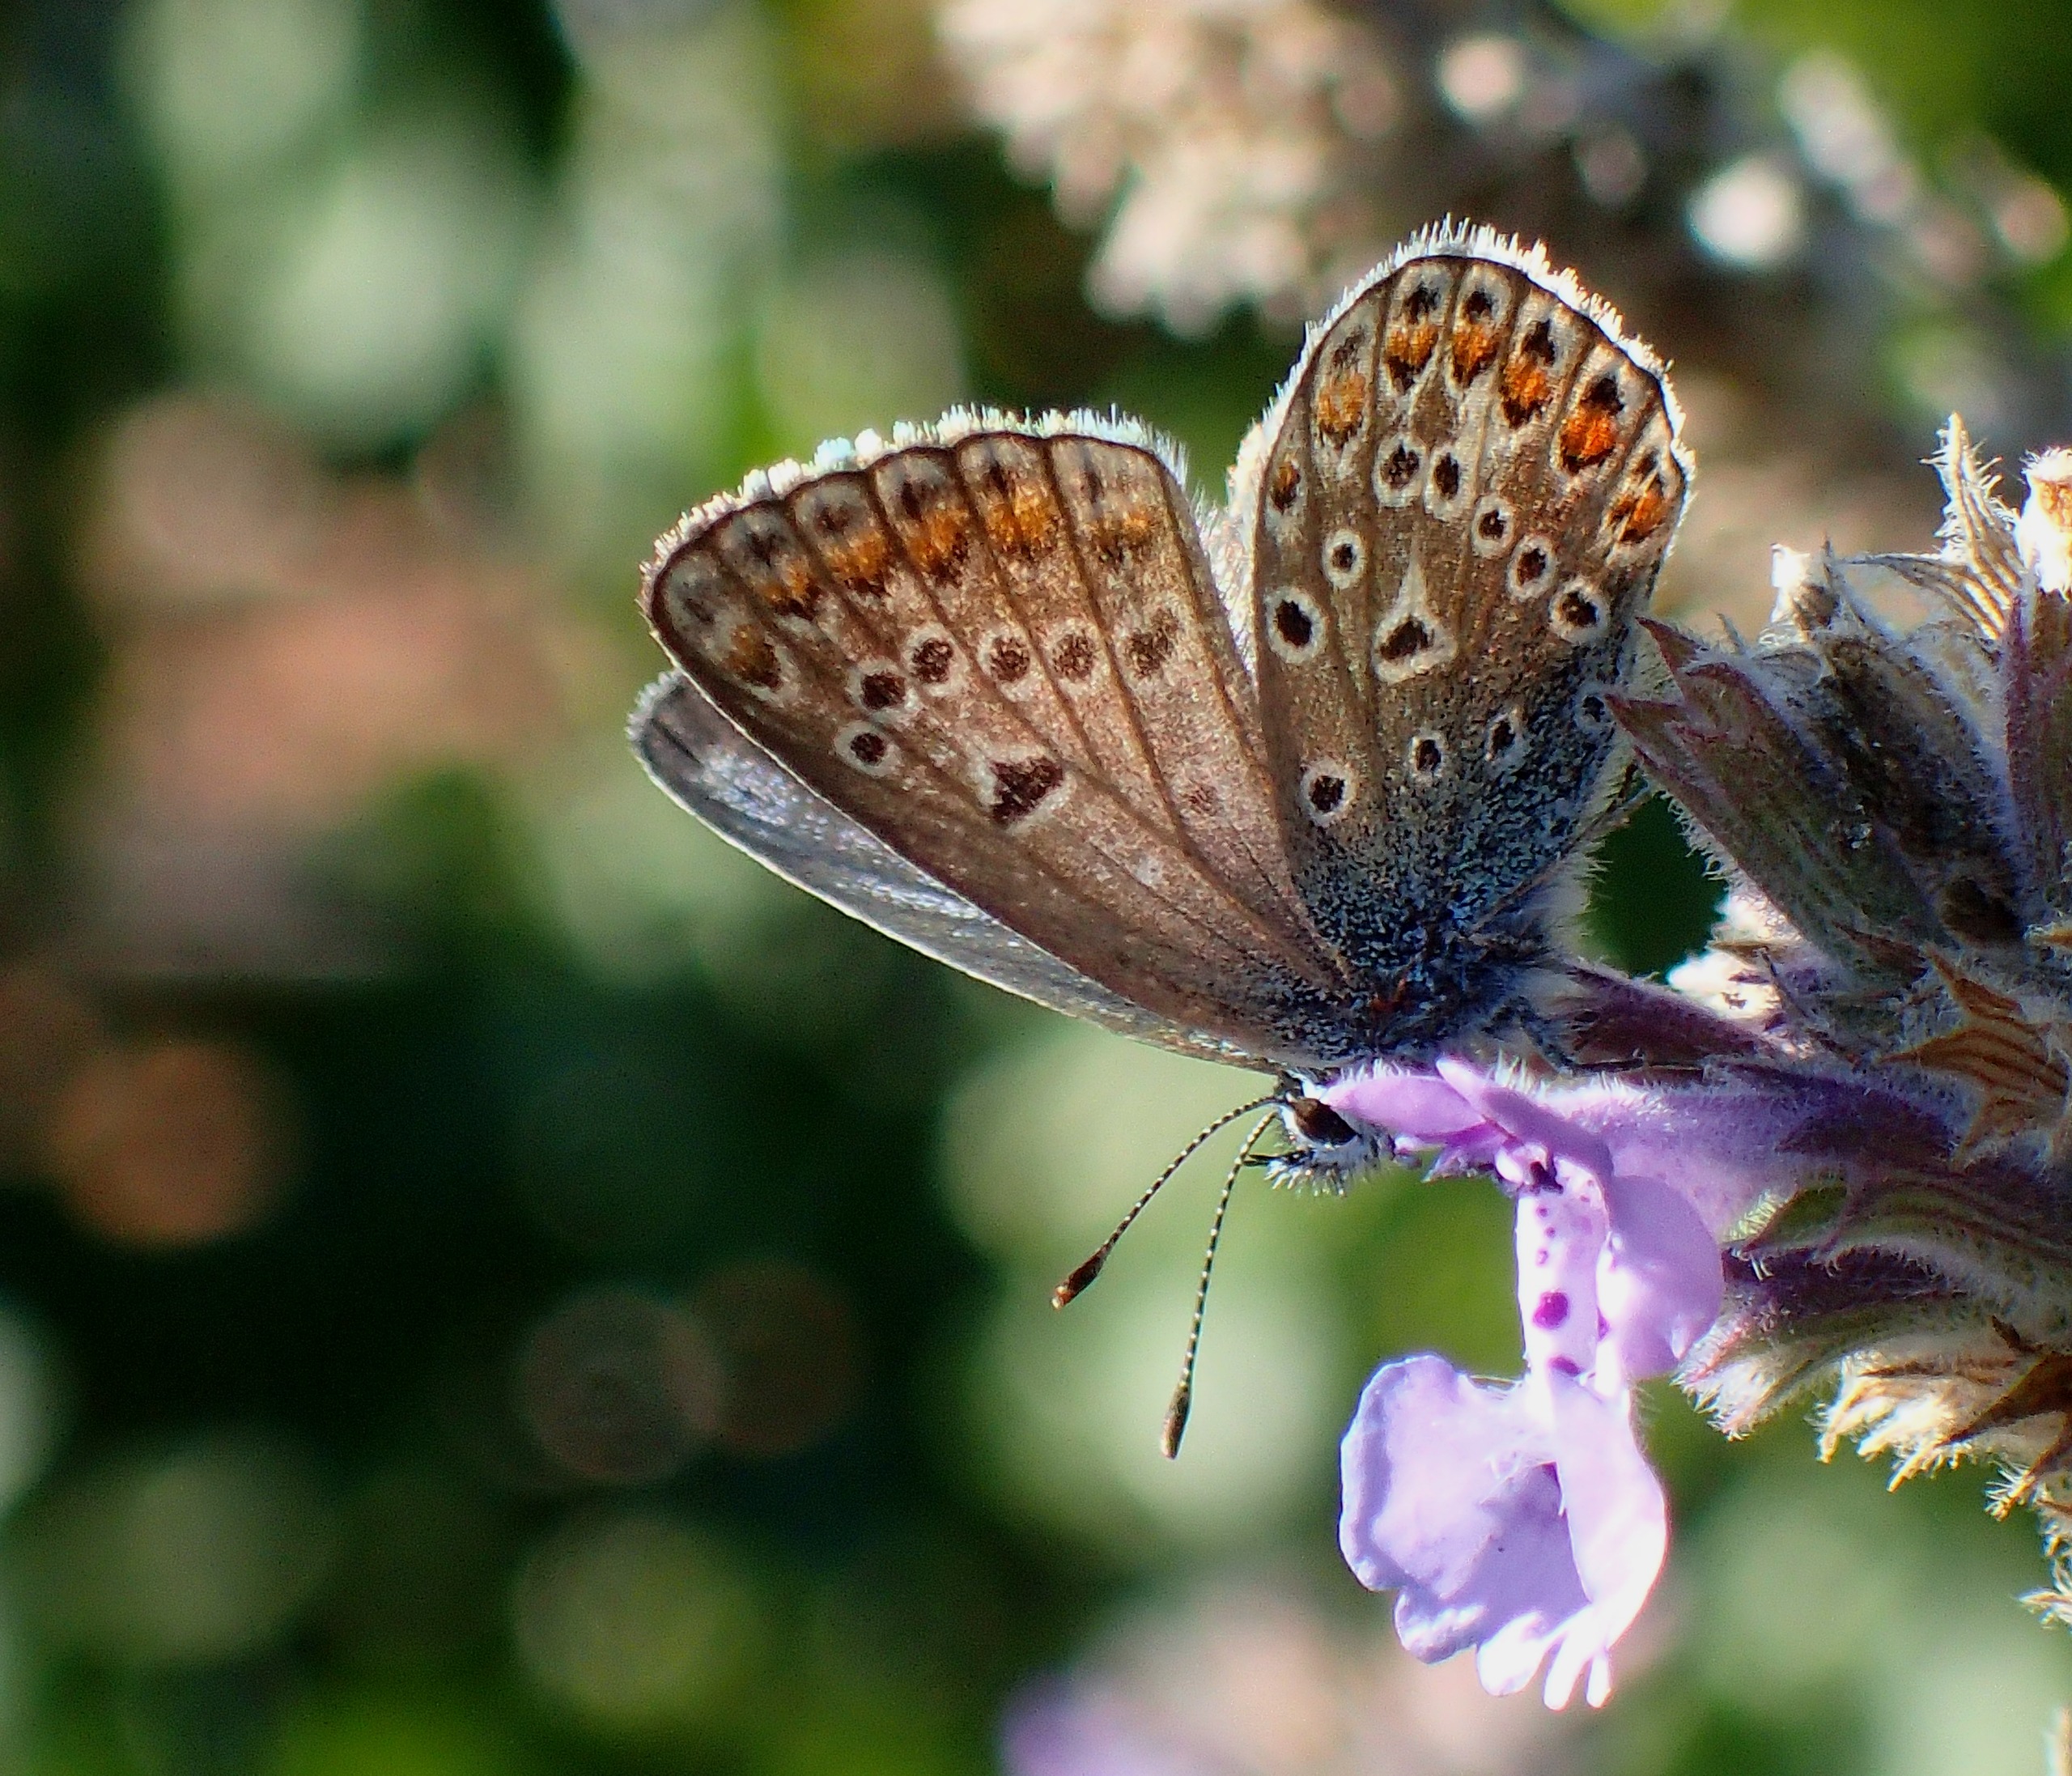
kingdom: Animalia
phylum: Arthropoda
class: Insecta
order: Lepidoptera
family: Lycaenidae
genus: Polyommatus
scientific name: Polyommatus icarus
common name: Almindelig blåfugl
